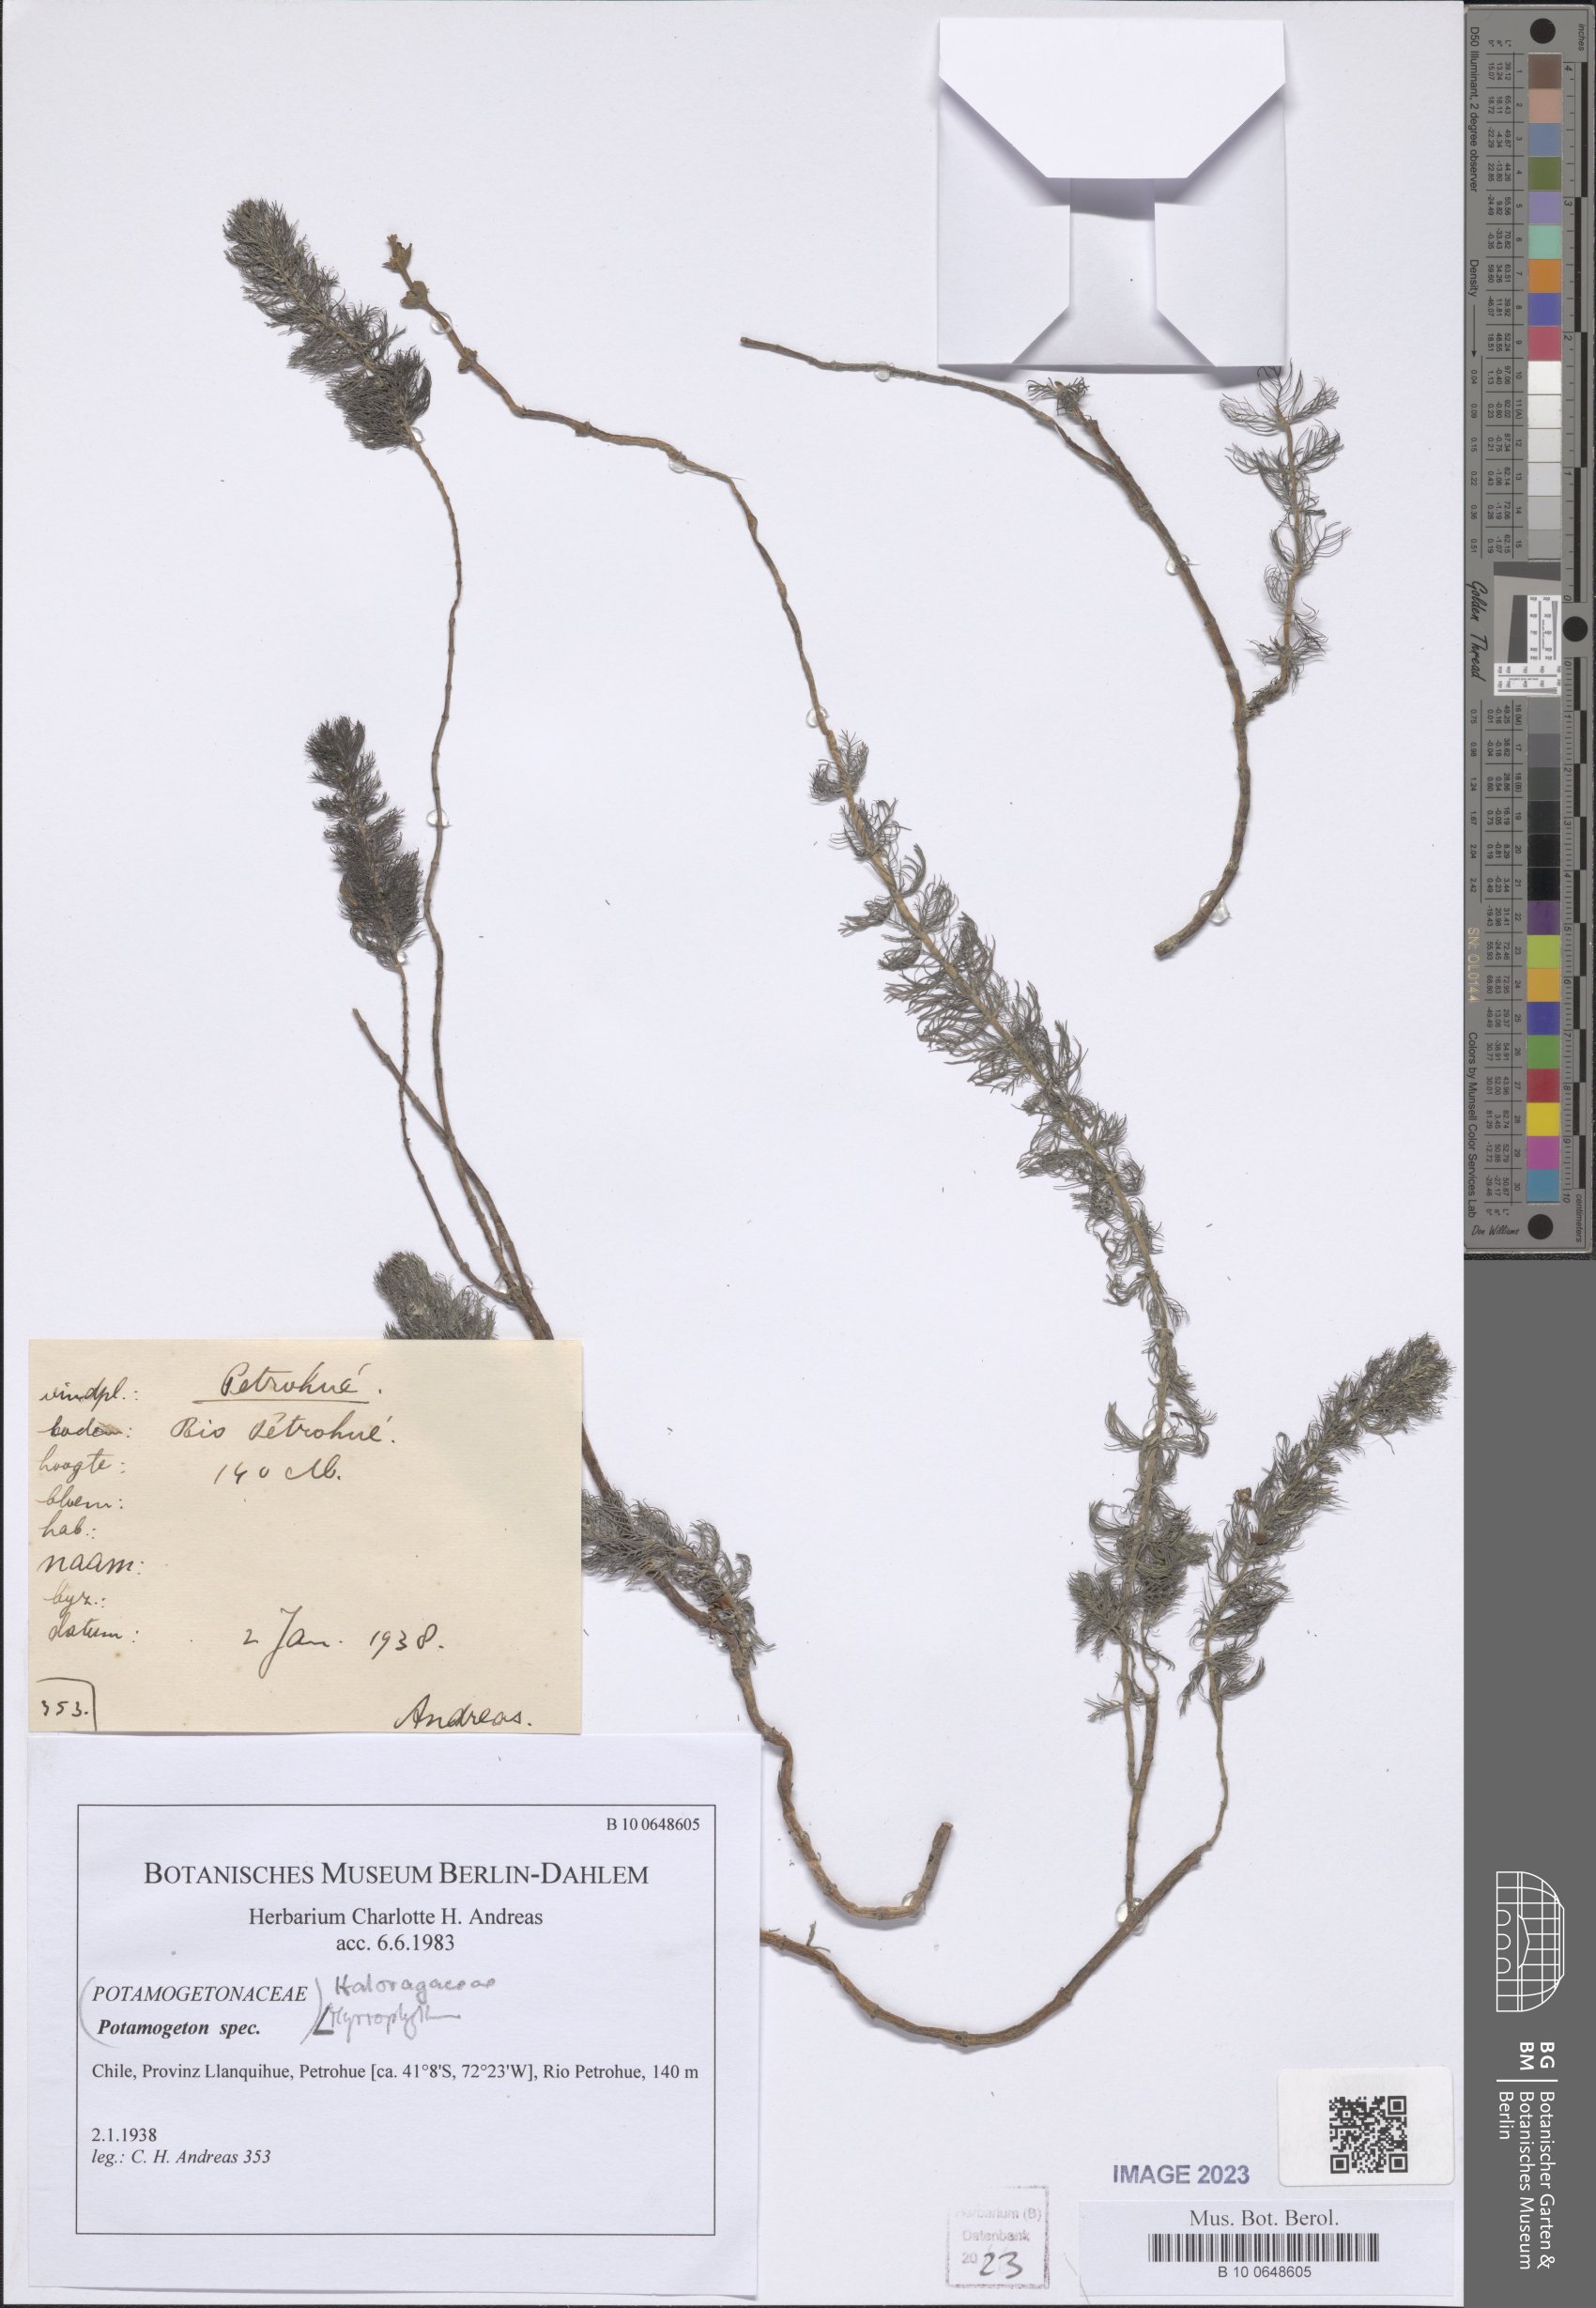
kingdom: Plantae
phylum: Tracheophyta
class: Magnoliopsida
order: Saxifragales
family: Haloragaceae
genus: Myriophyllum
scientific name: Myriophyllum
